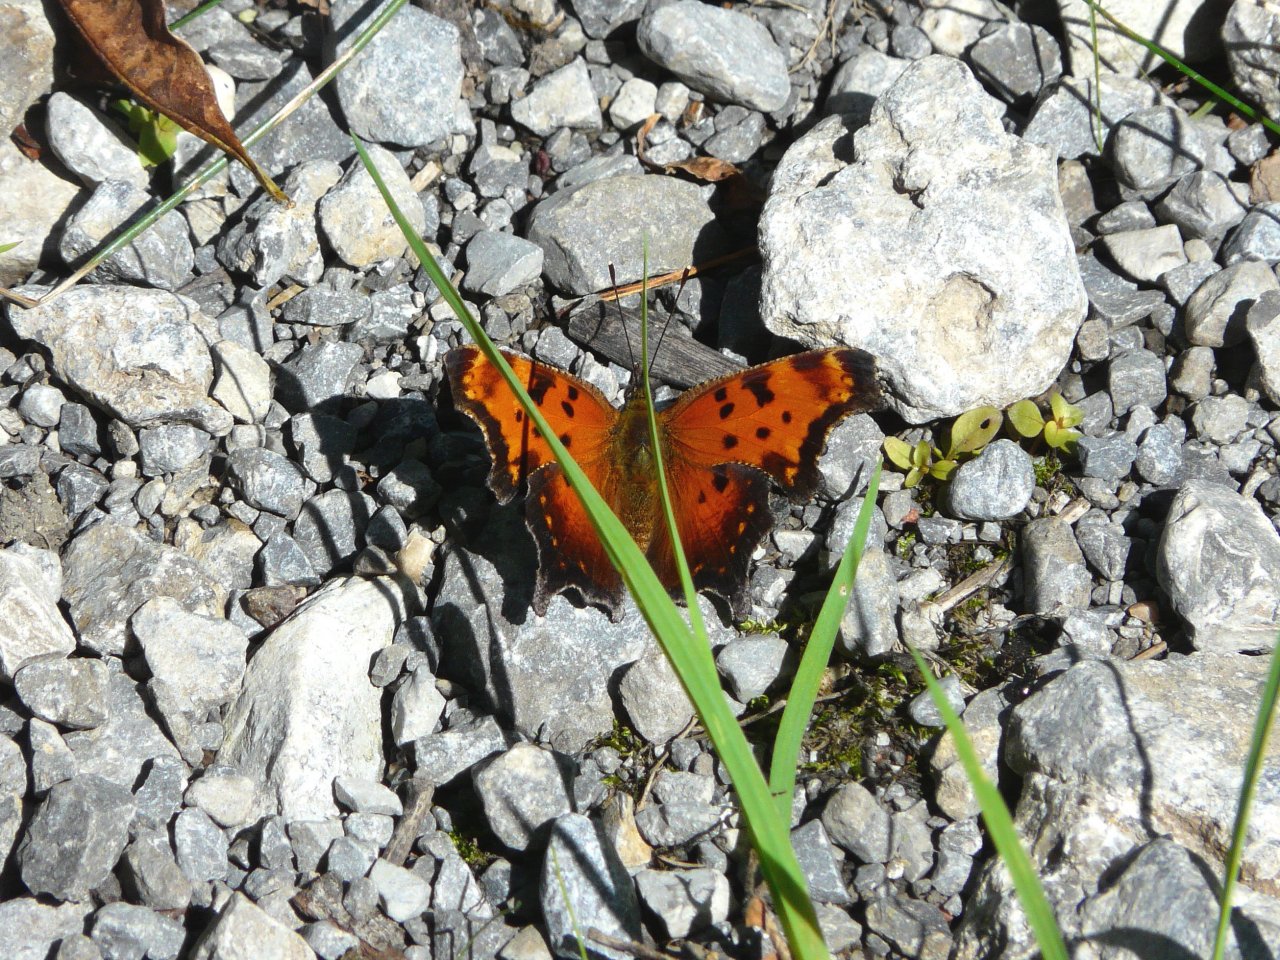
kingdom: Animalia
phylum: Arthropoda
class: Insecta
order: Lepidoptera
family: Nymphalidae
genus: Polygonia
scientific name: Polygonia progne
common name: Gray Comma
